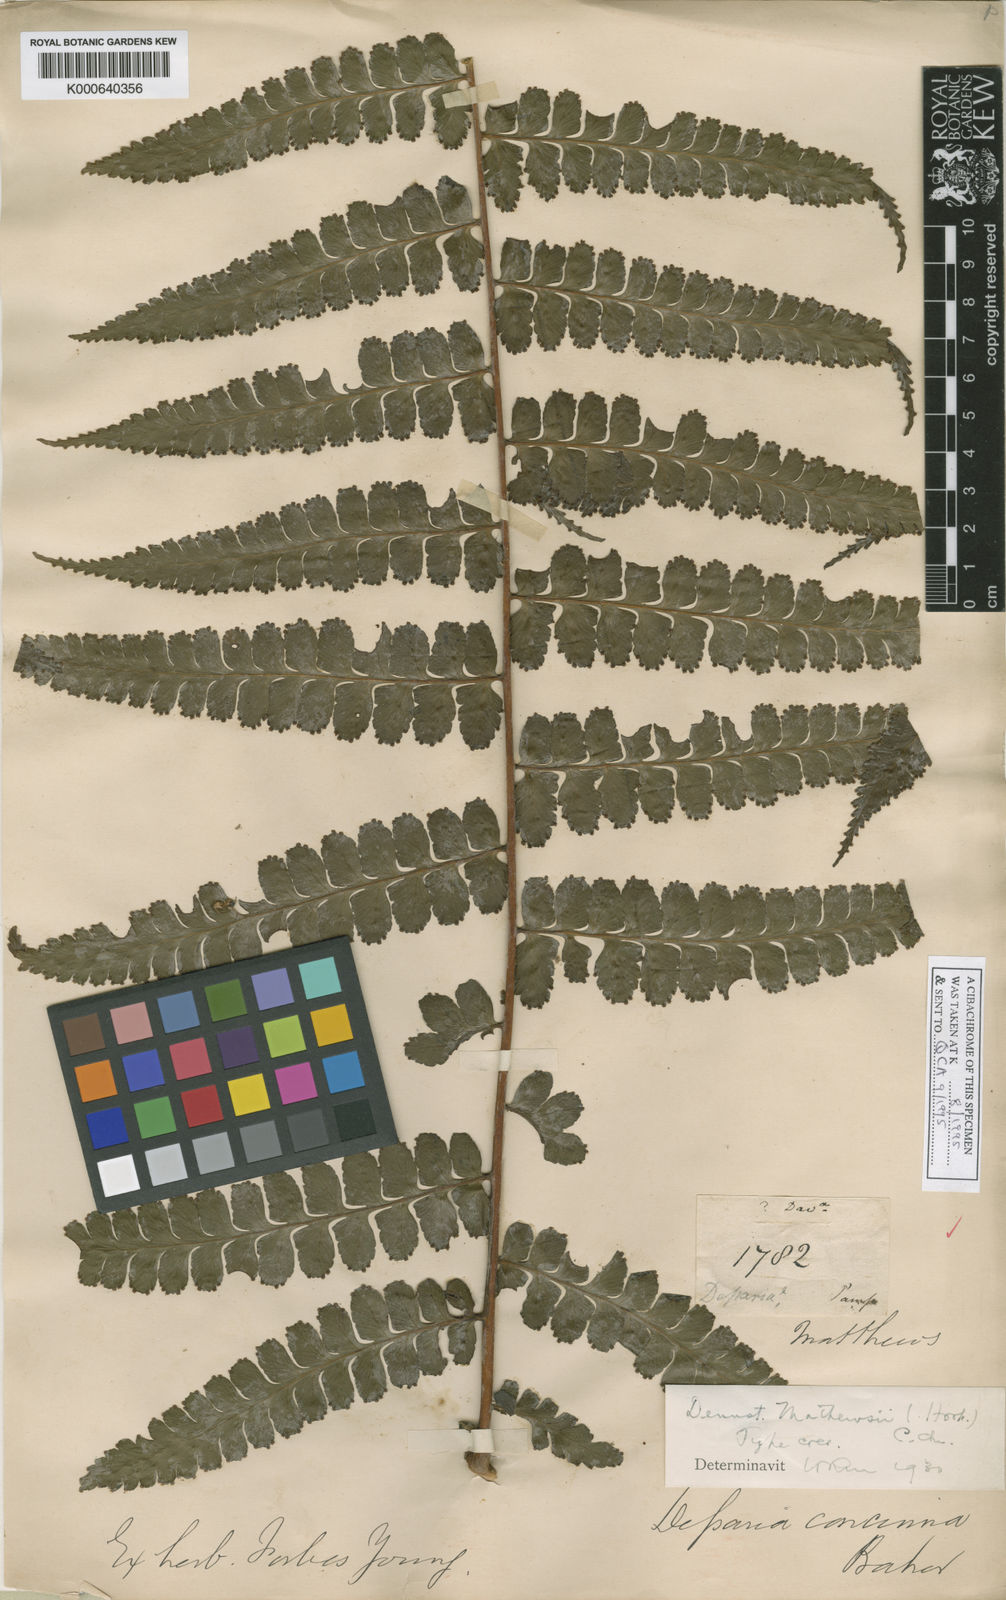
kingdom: Plantae
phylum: Tracheophyta
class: Polypodiopsida
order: Polypodiales
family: Dennstaedtiaceae
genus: Dennstaedtia
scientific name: Dennstaedtia mathewsii
